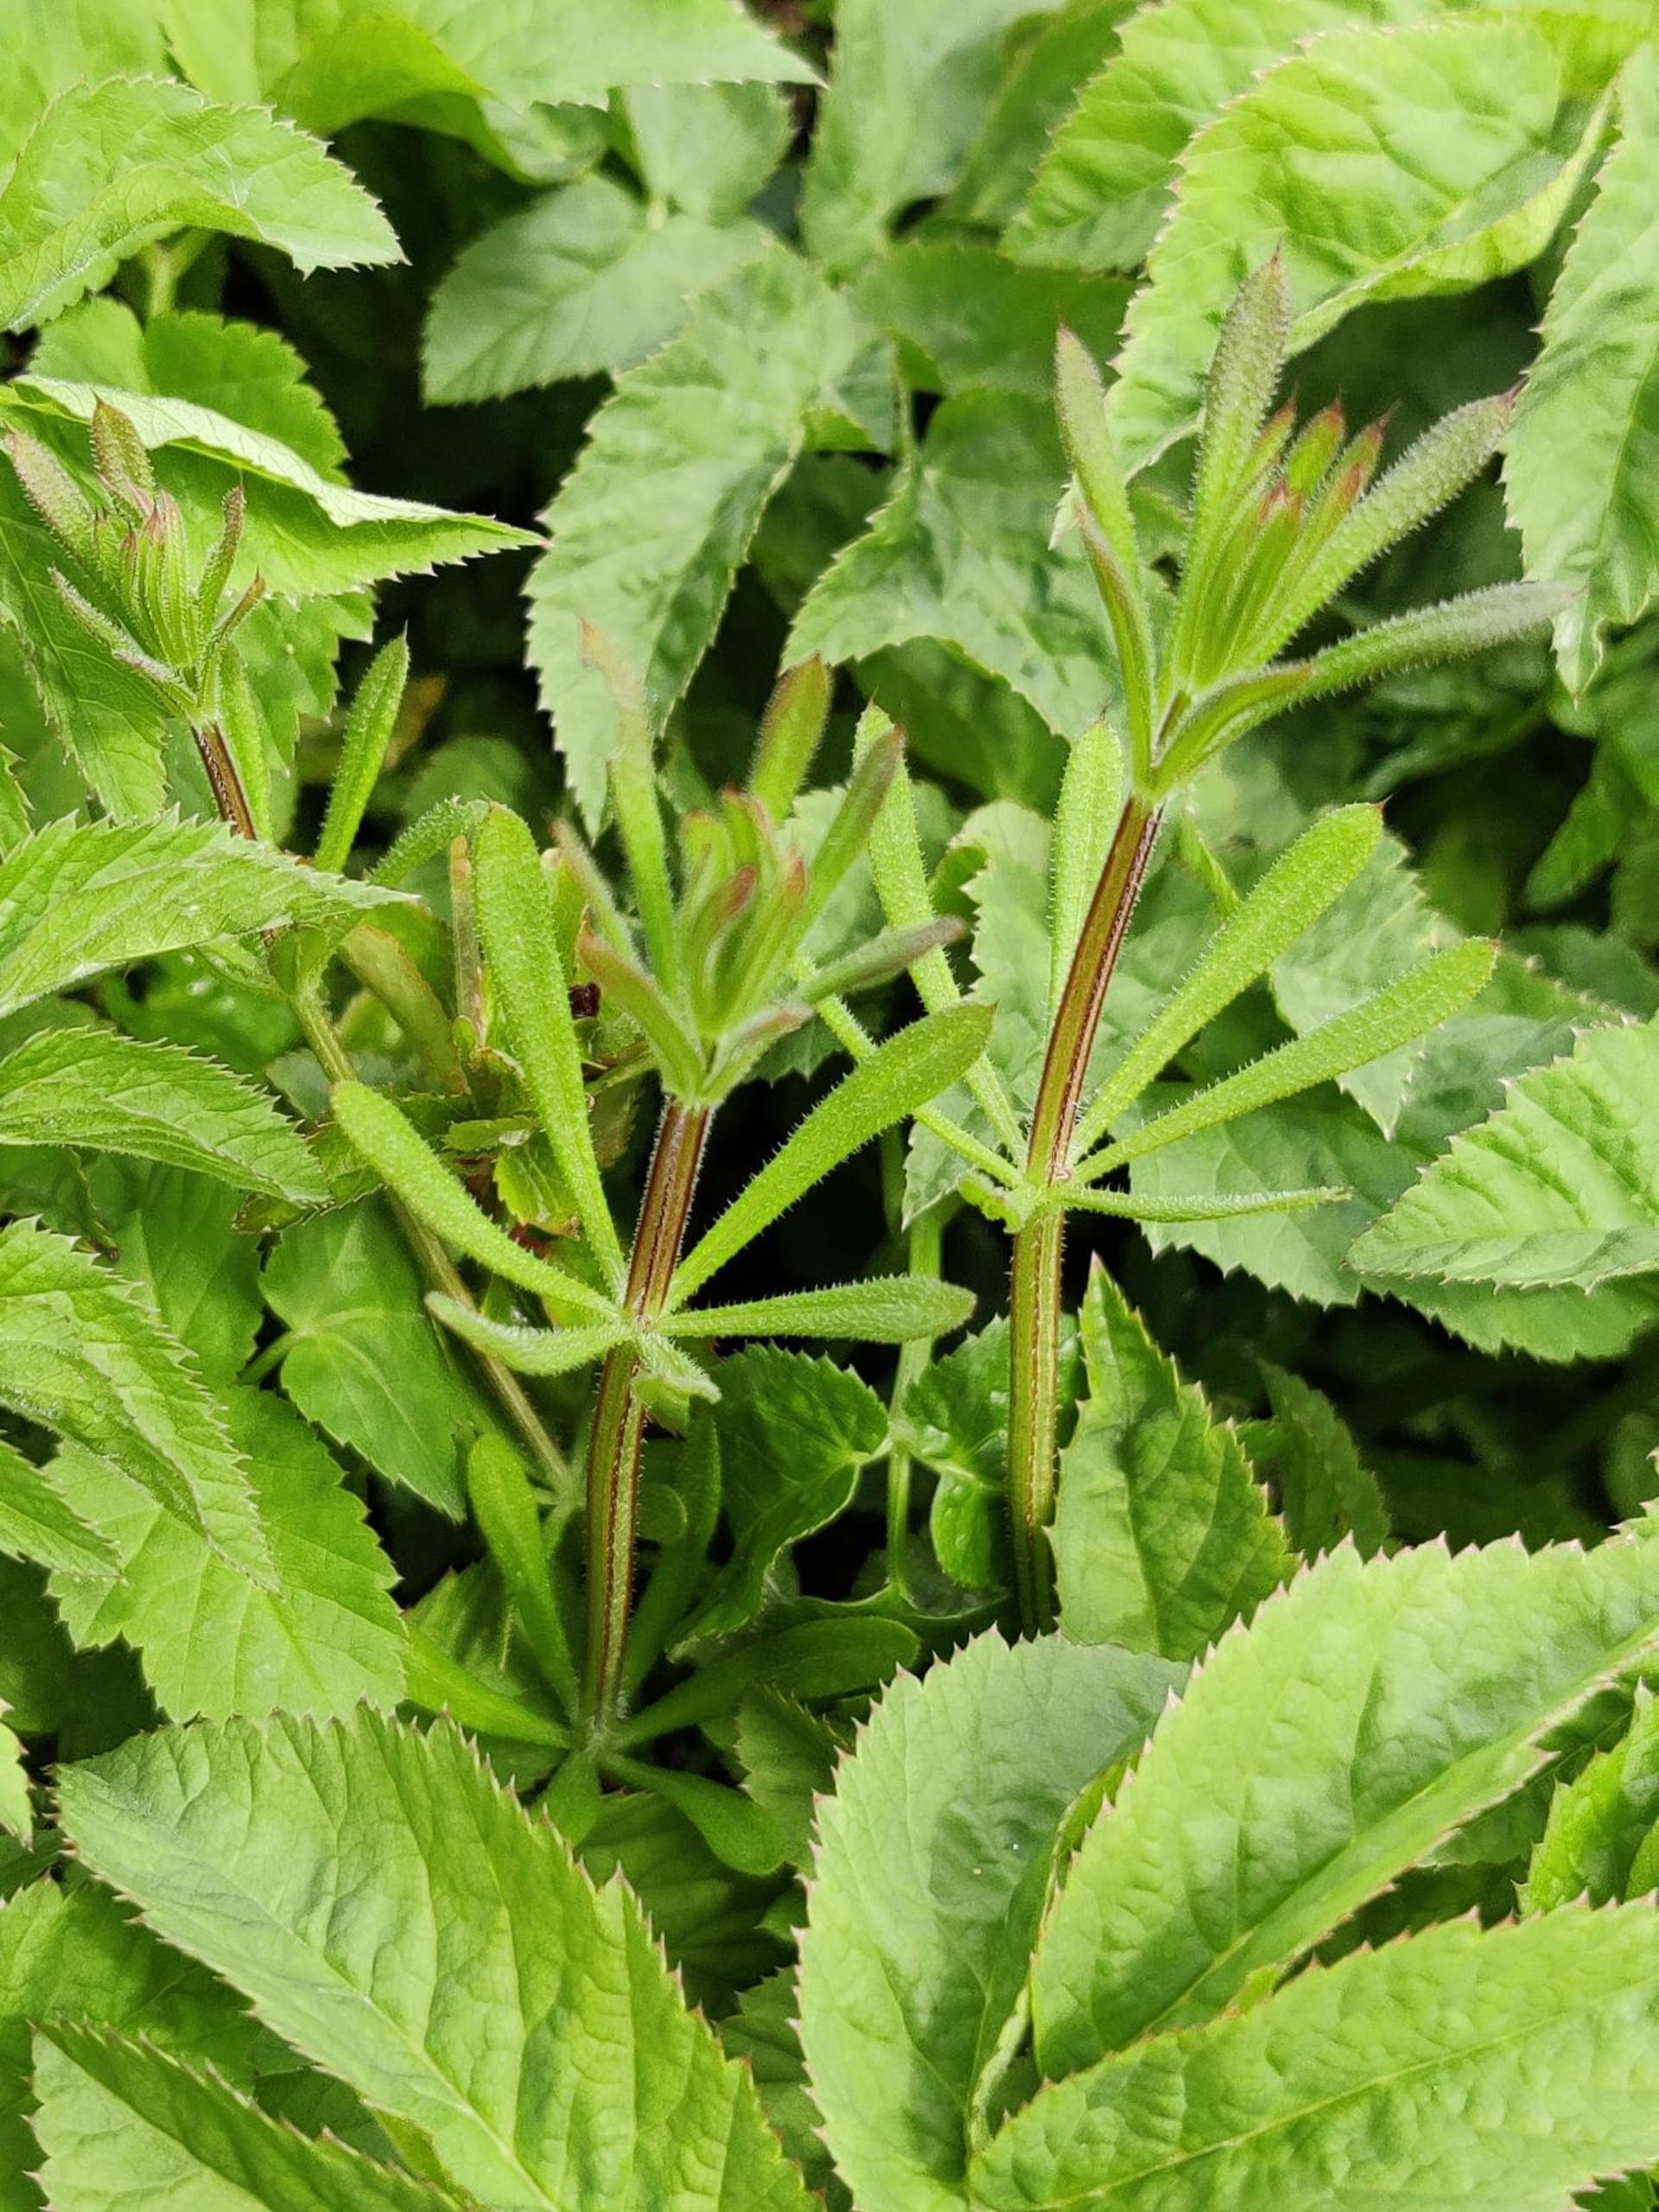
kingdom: Plantae
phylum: Tracheophyta
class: Magnoliopsida
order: Gentianales
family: Rubiaceae
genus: Galium
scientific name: Galium aparine
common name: Burre-snerre
